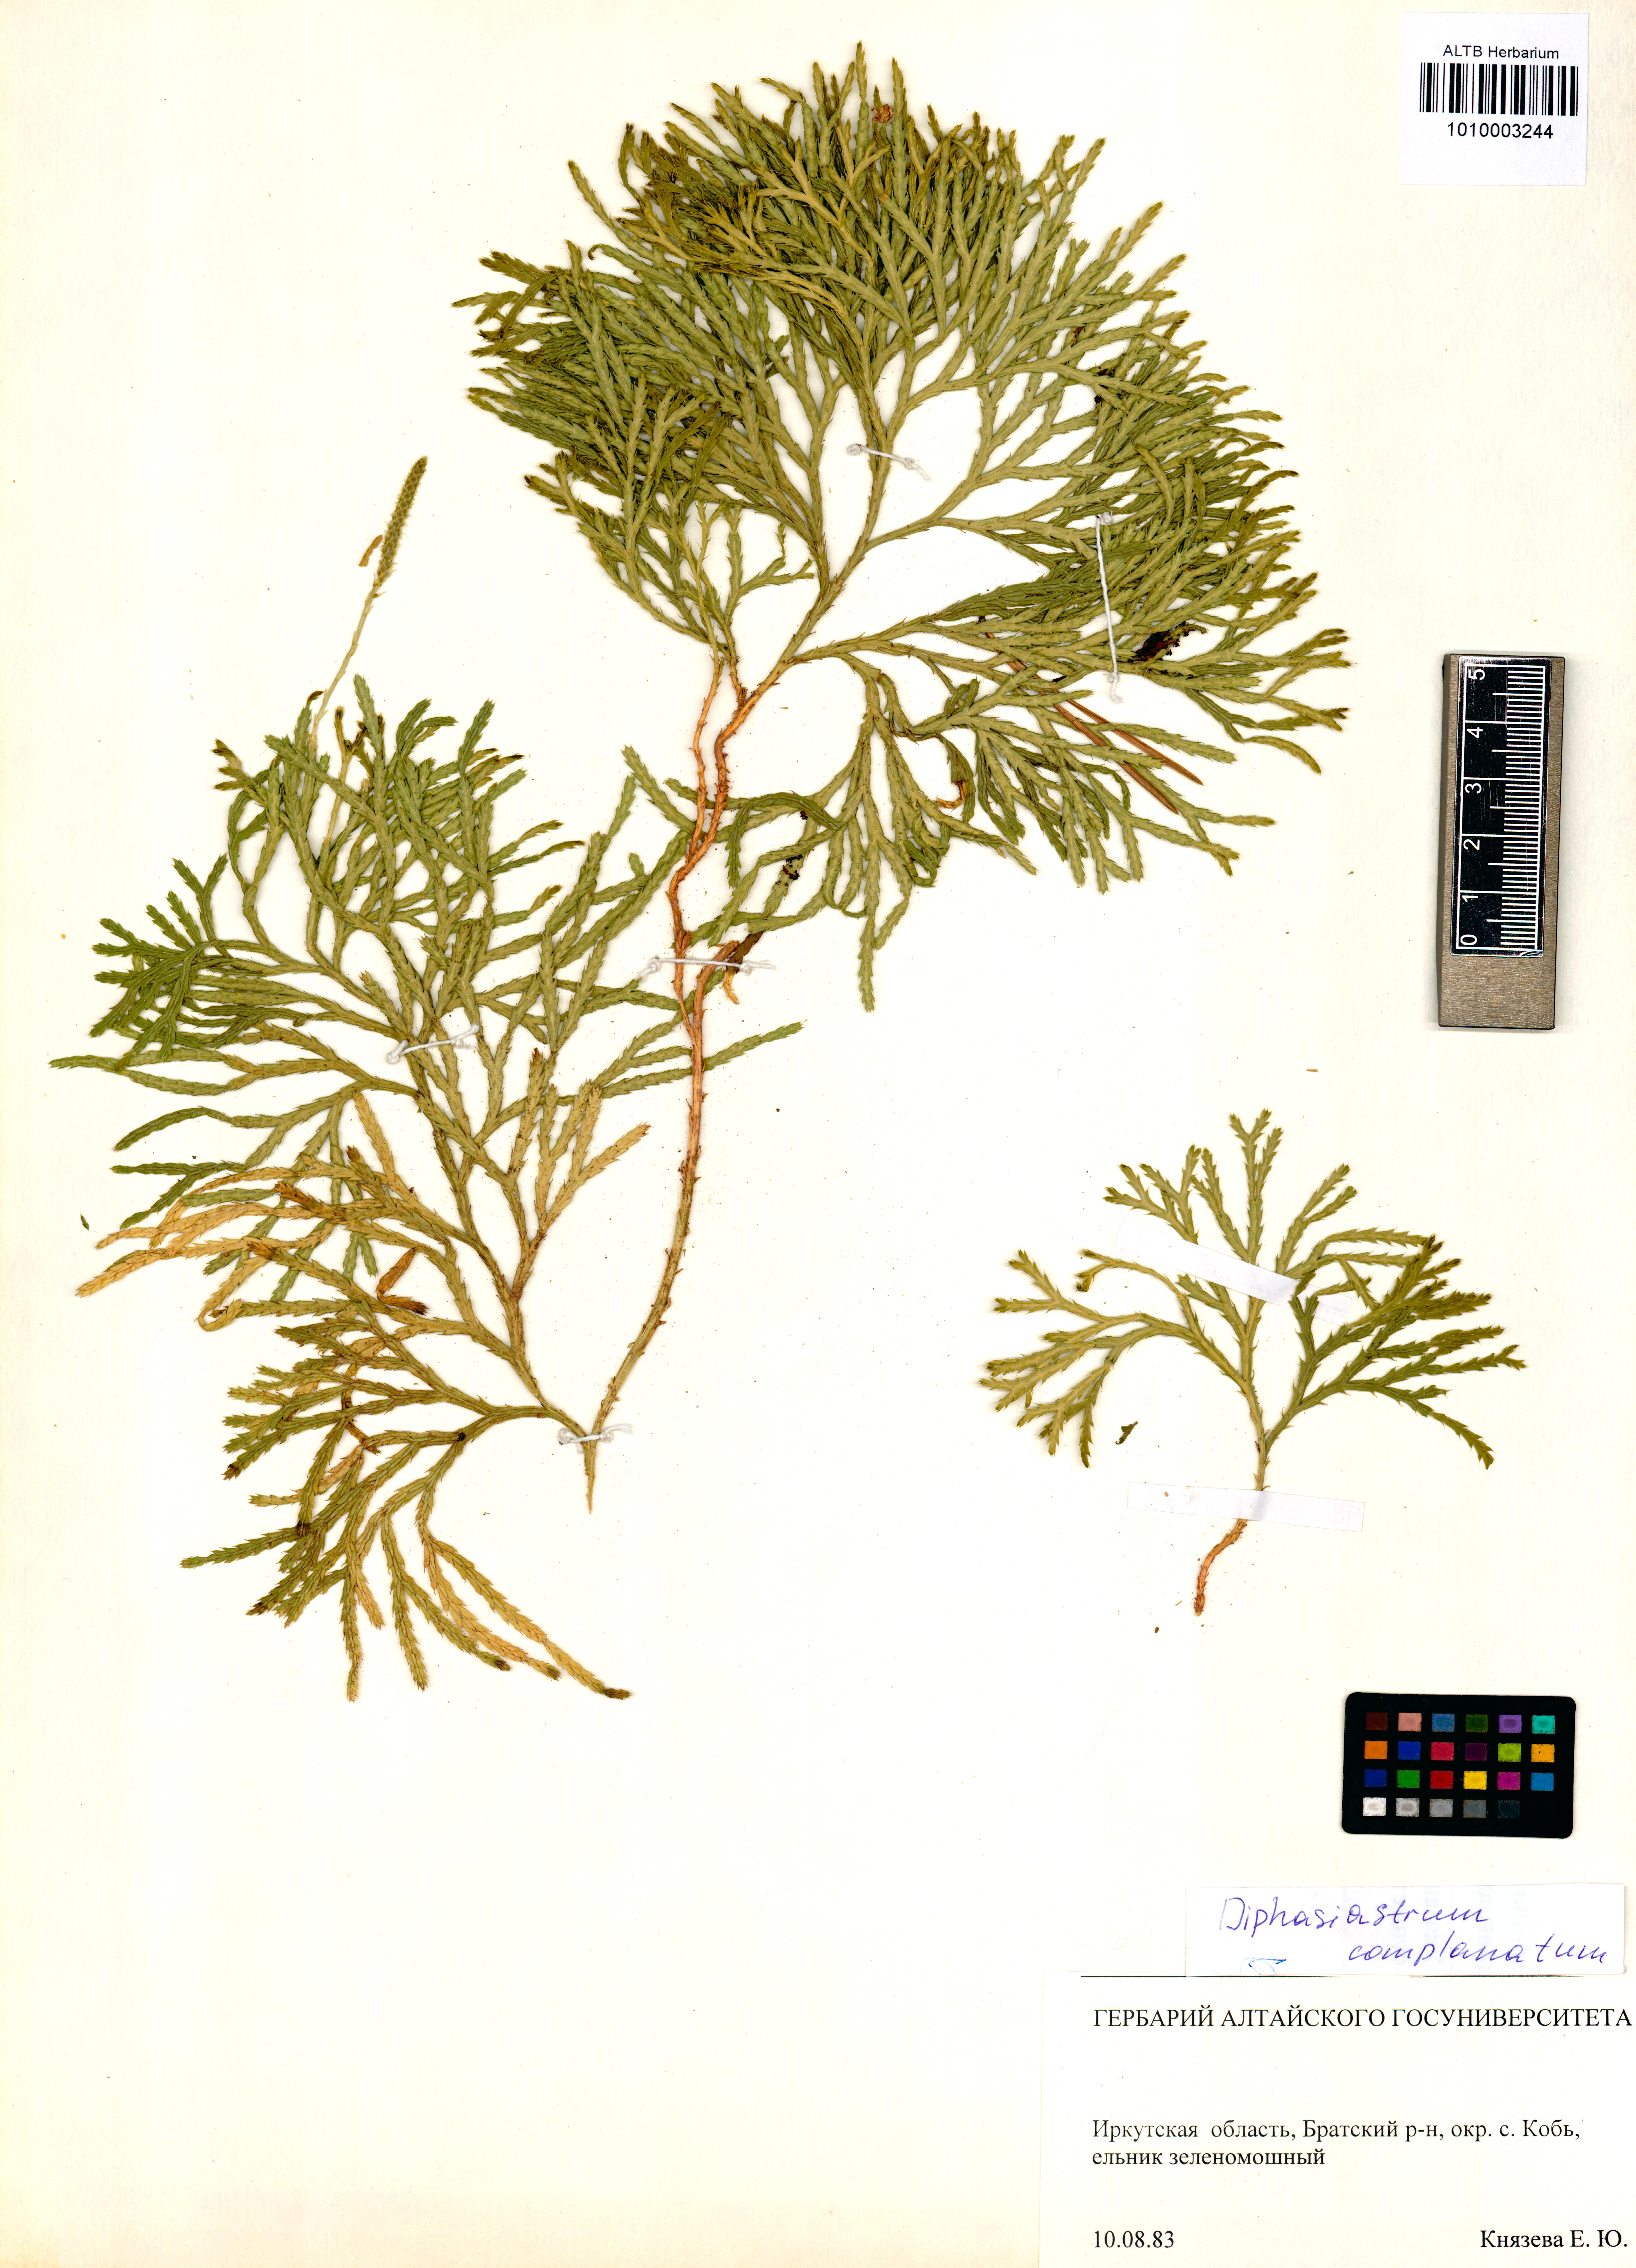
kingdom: Plantae
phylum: Tracheophyta
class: Lycopodiopsida
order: Lycopodiales
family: Lycopodiaceae
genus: Diphasiastrum
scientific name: Diphasiastrum complanatum
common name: Northern running-pine
